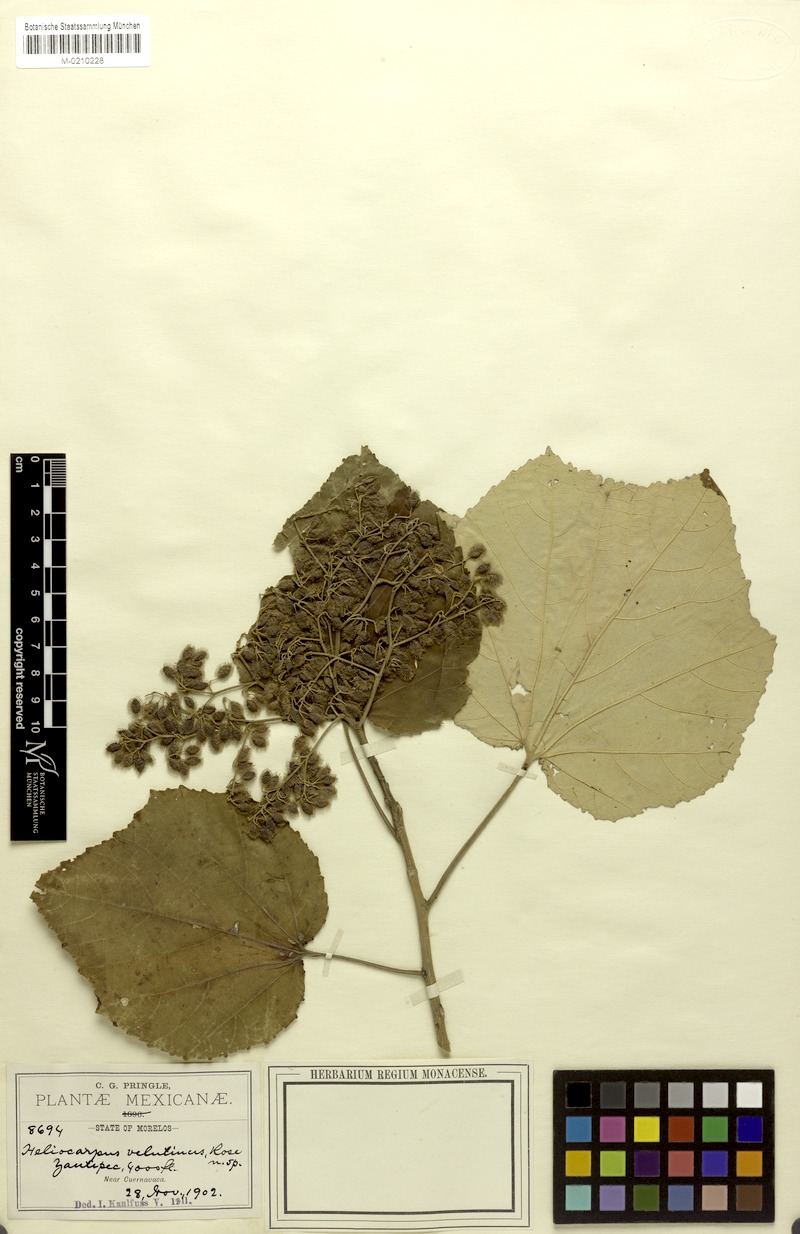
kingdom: Plantae
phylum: Tracheophyta
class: Magnoliopsida
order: Malvales
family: Malvaceae
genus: Heliocarpus
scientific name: Heliocarpus velutinus
